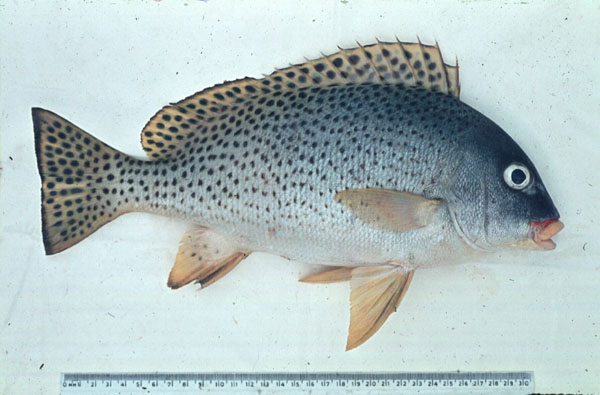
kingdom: Animalia
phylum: Chordata
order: Perciformes
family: Haemulidae
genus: Plectorhinchus
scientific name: Plectorhinchus gaterinus
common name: Blackspotted rubberlip
